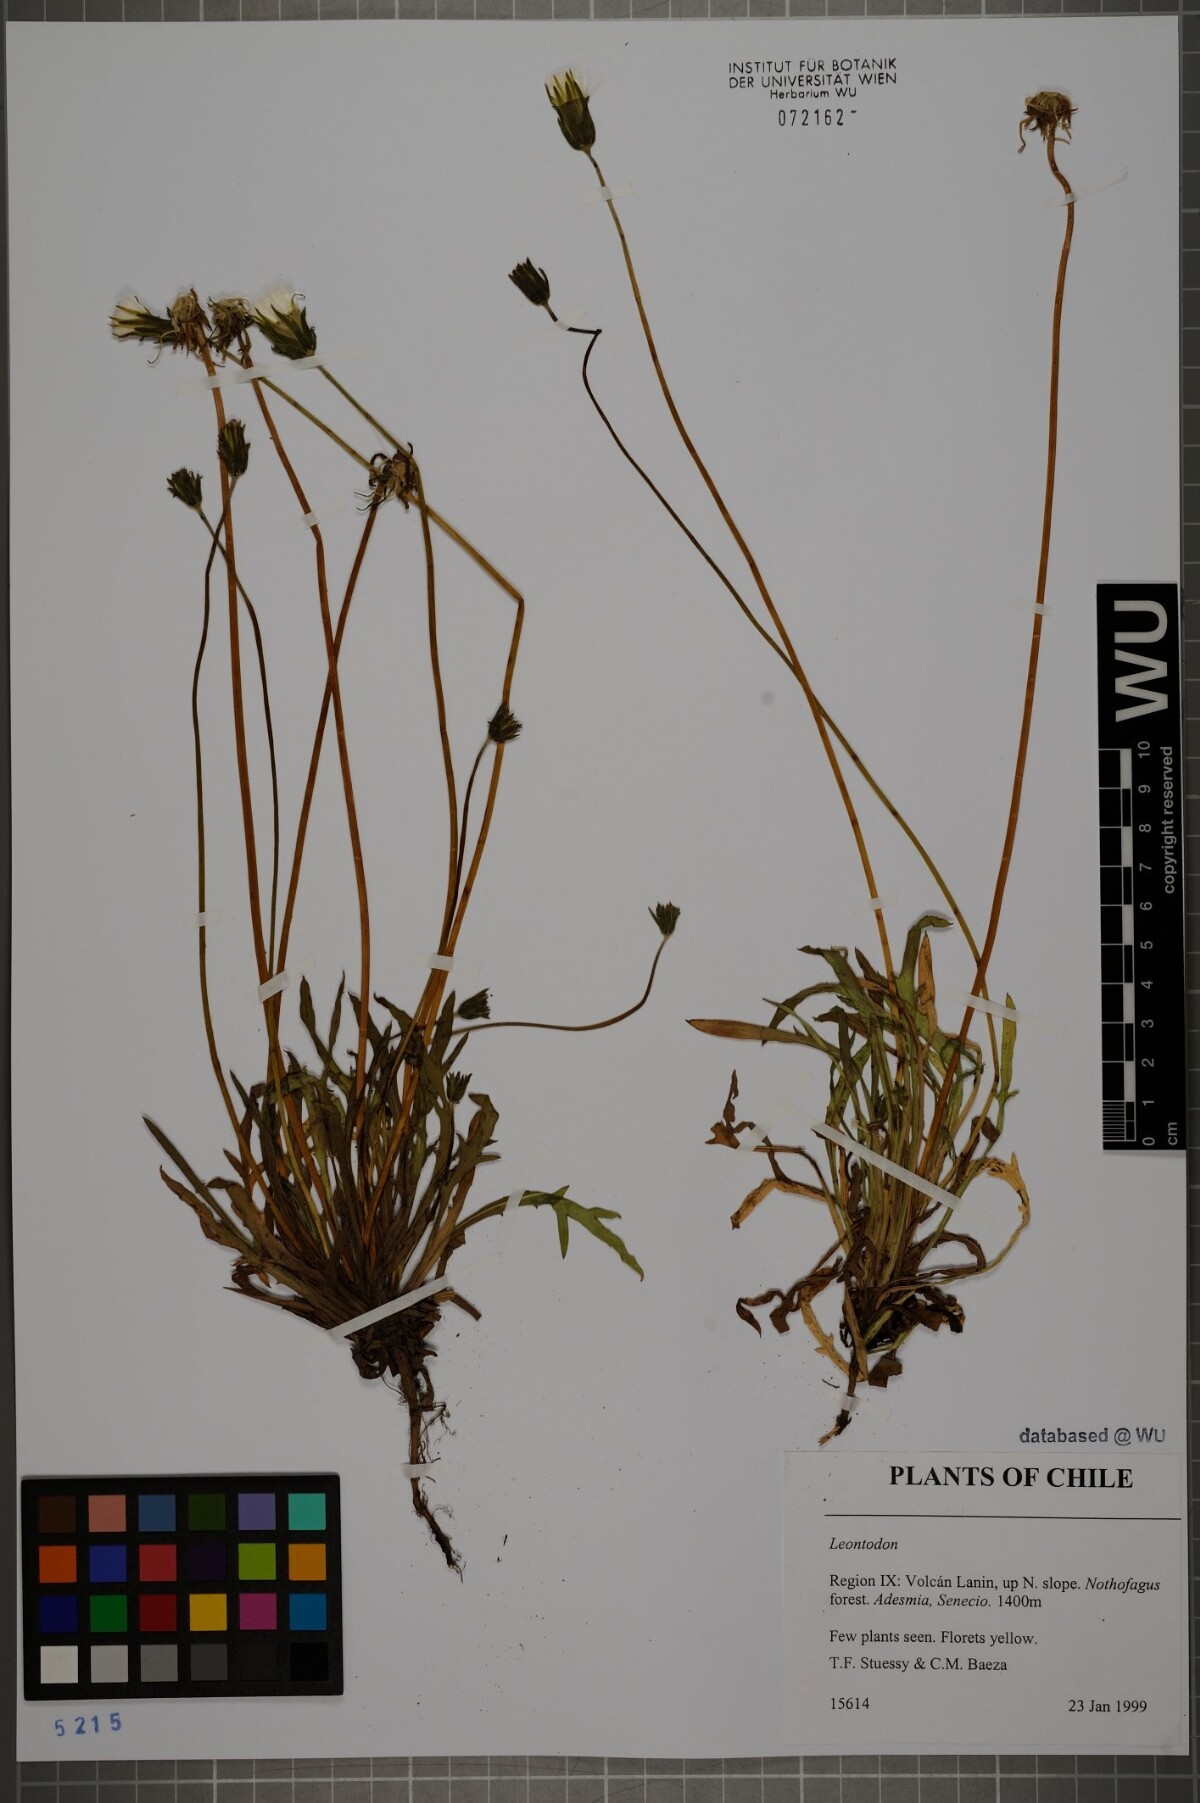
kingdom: Plantae
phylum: Tracheophyta
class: Magnoliopsida
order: Asterales
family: Asteraceae
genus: Leontodon
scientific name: Leontodon
